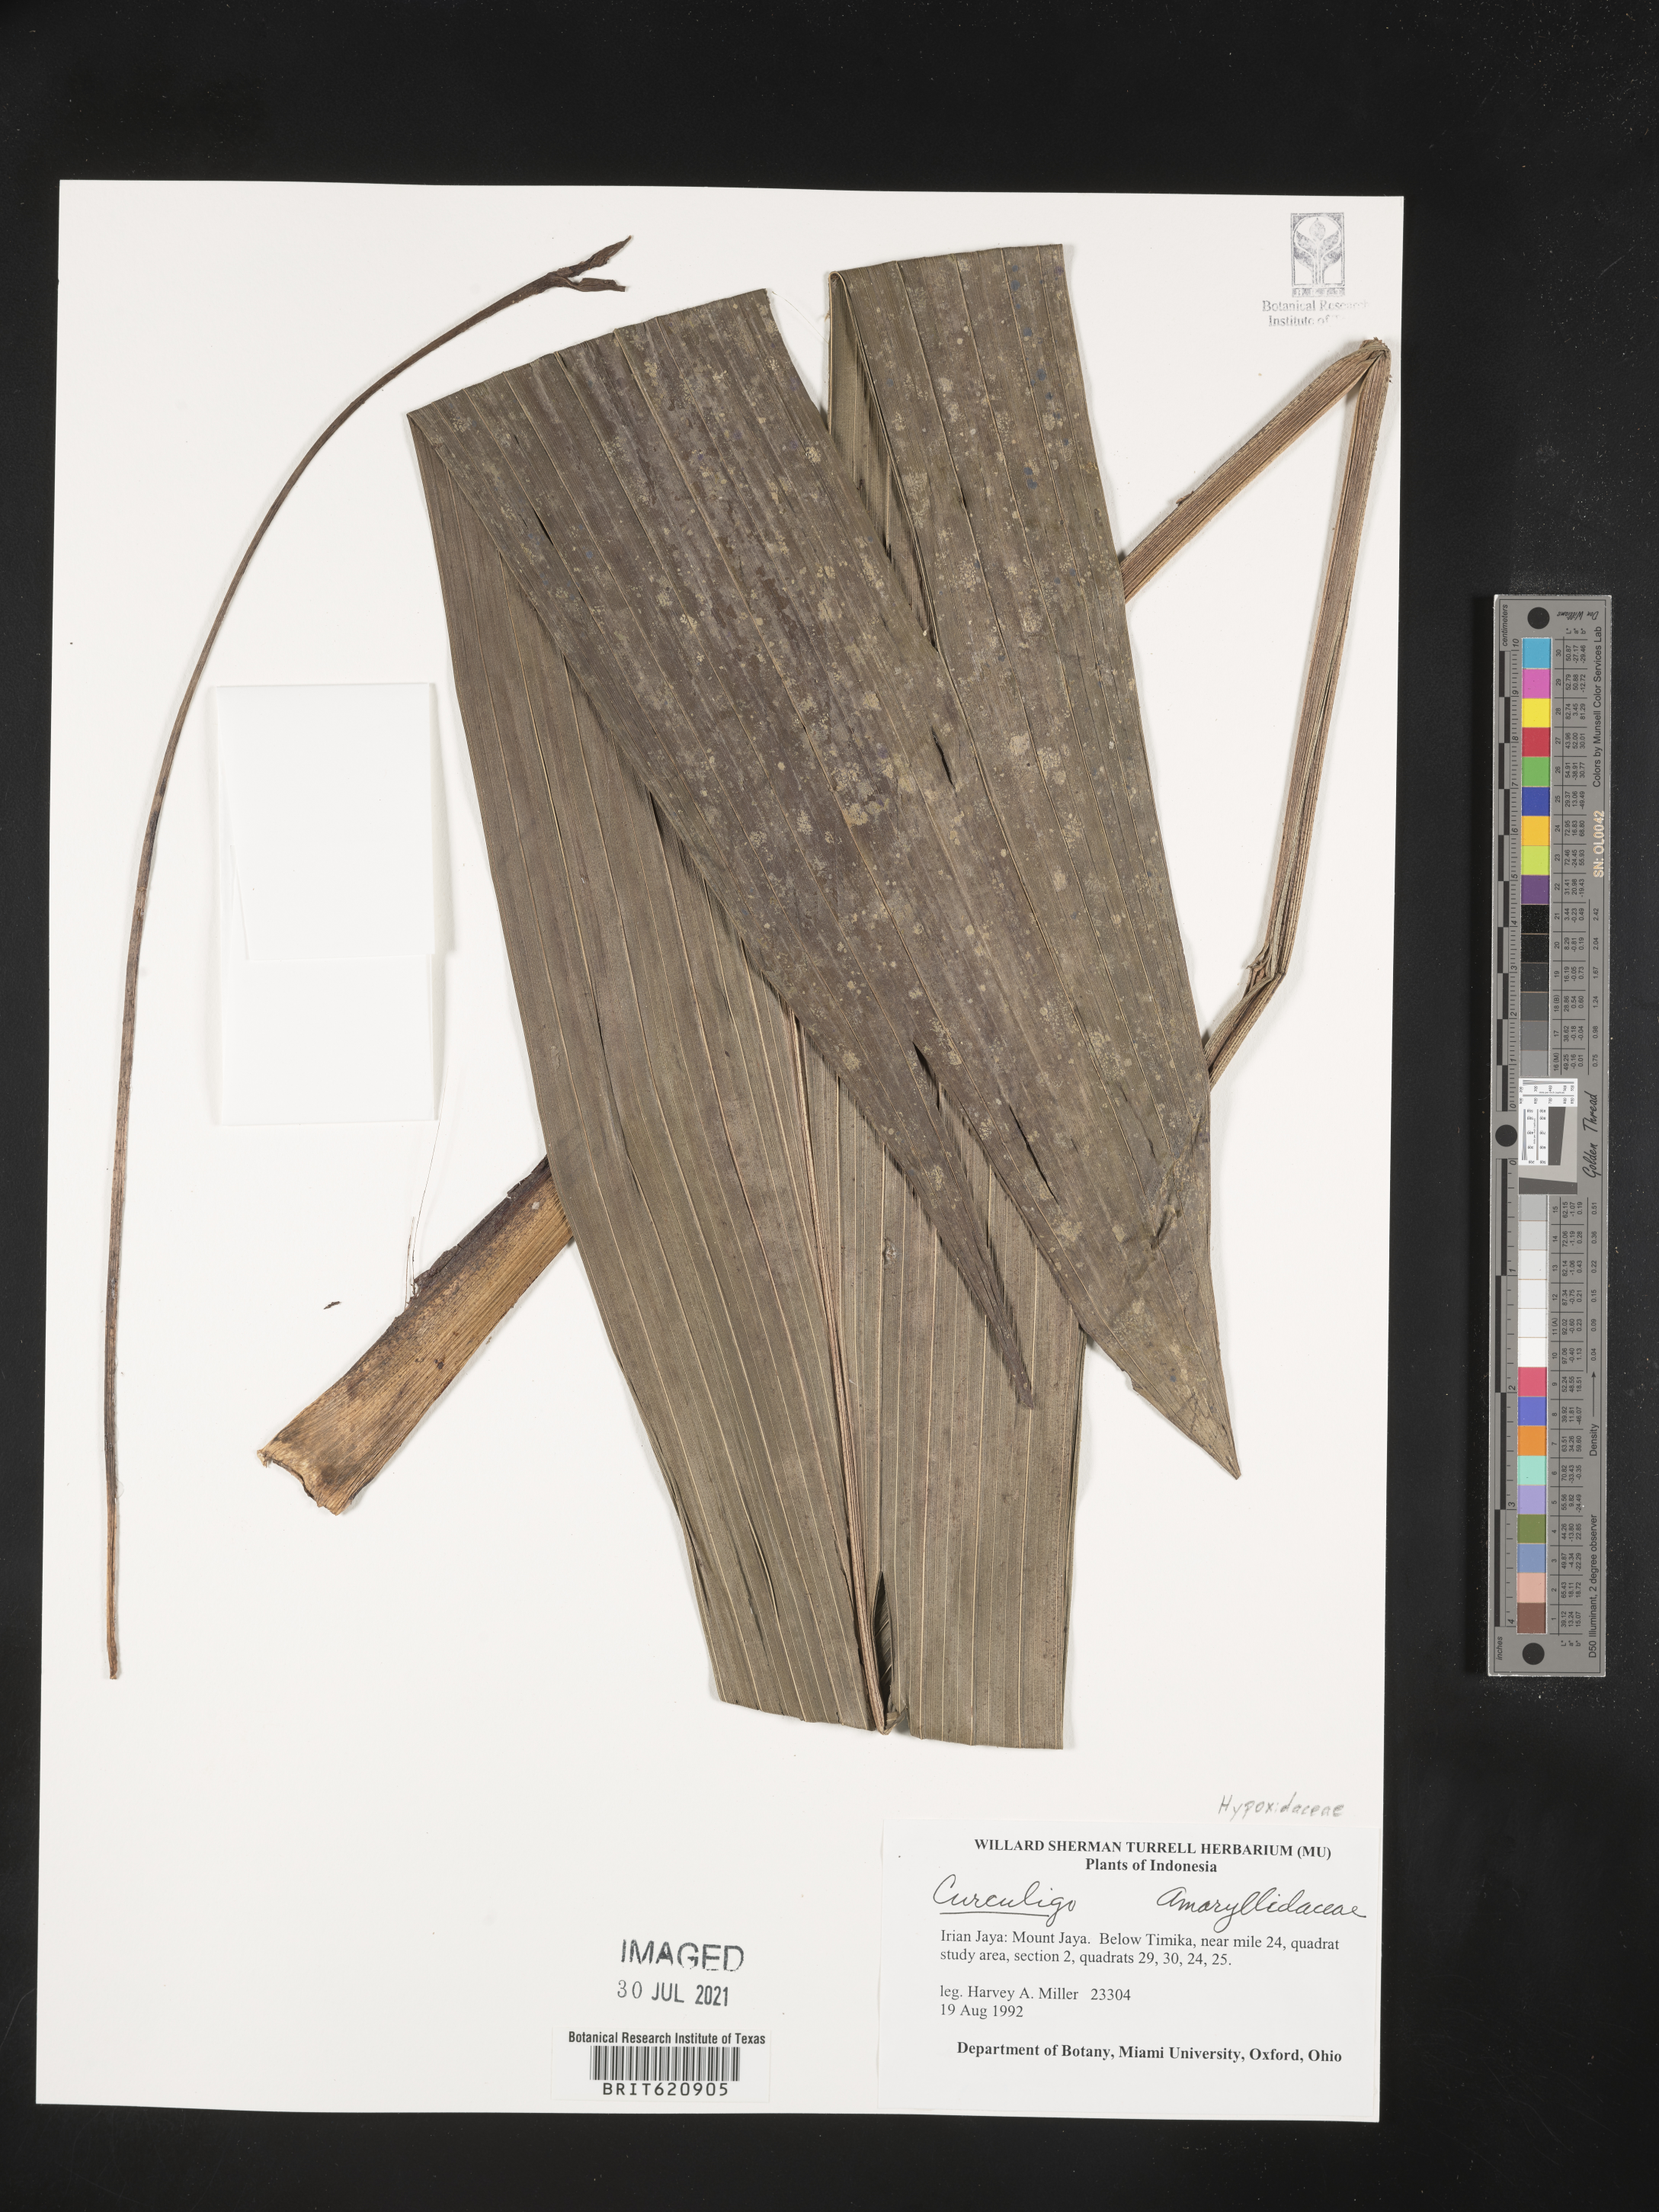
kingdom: Plantae
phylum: Tracheophyta
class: Liliopsida
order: Asparagales
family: Hypoxidaceae
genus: Curculigo
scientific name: Curculigo
